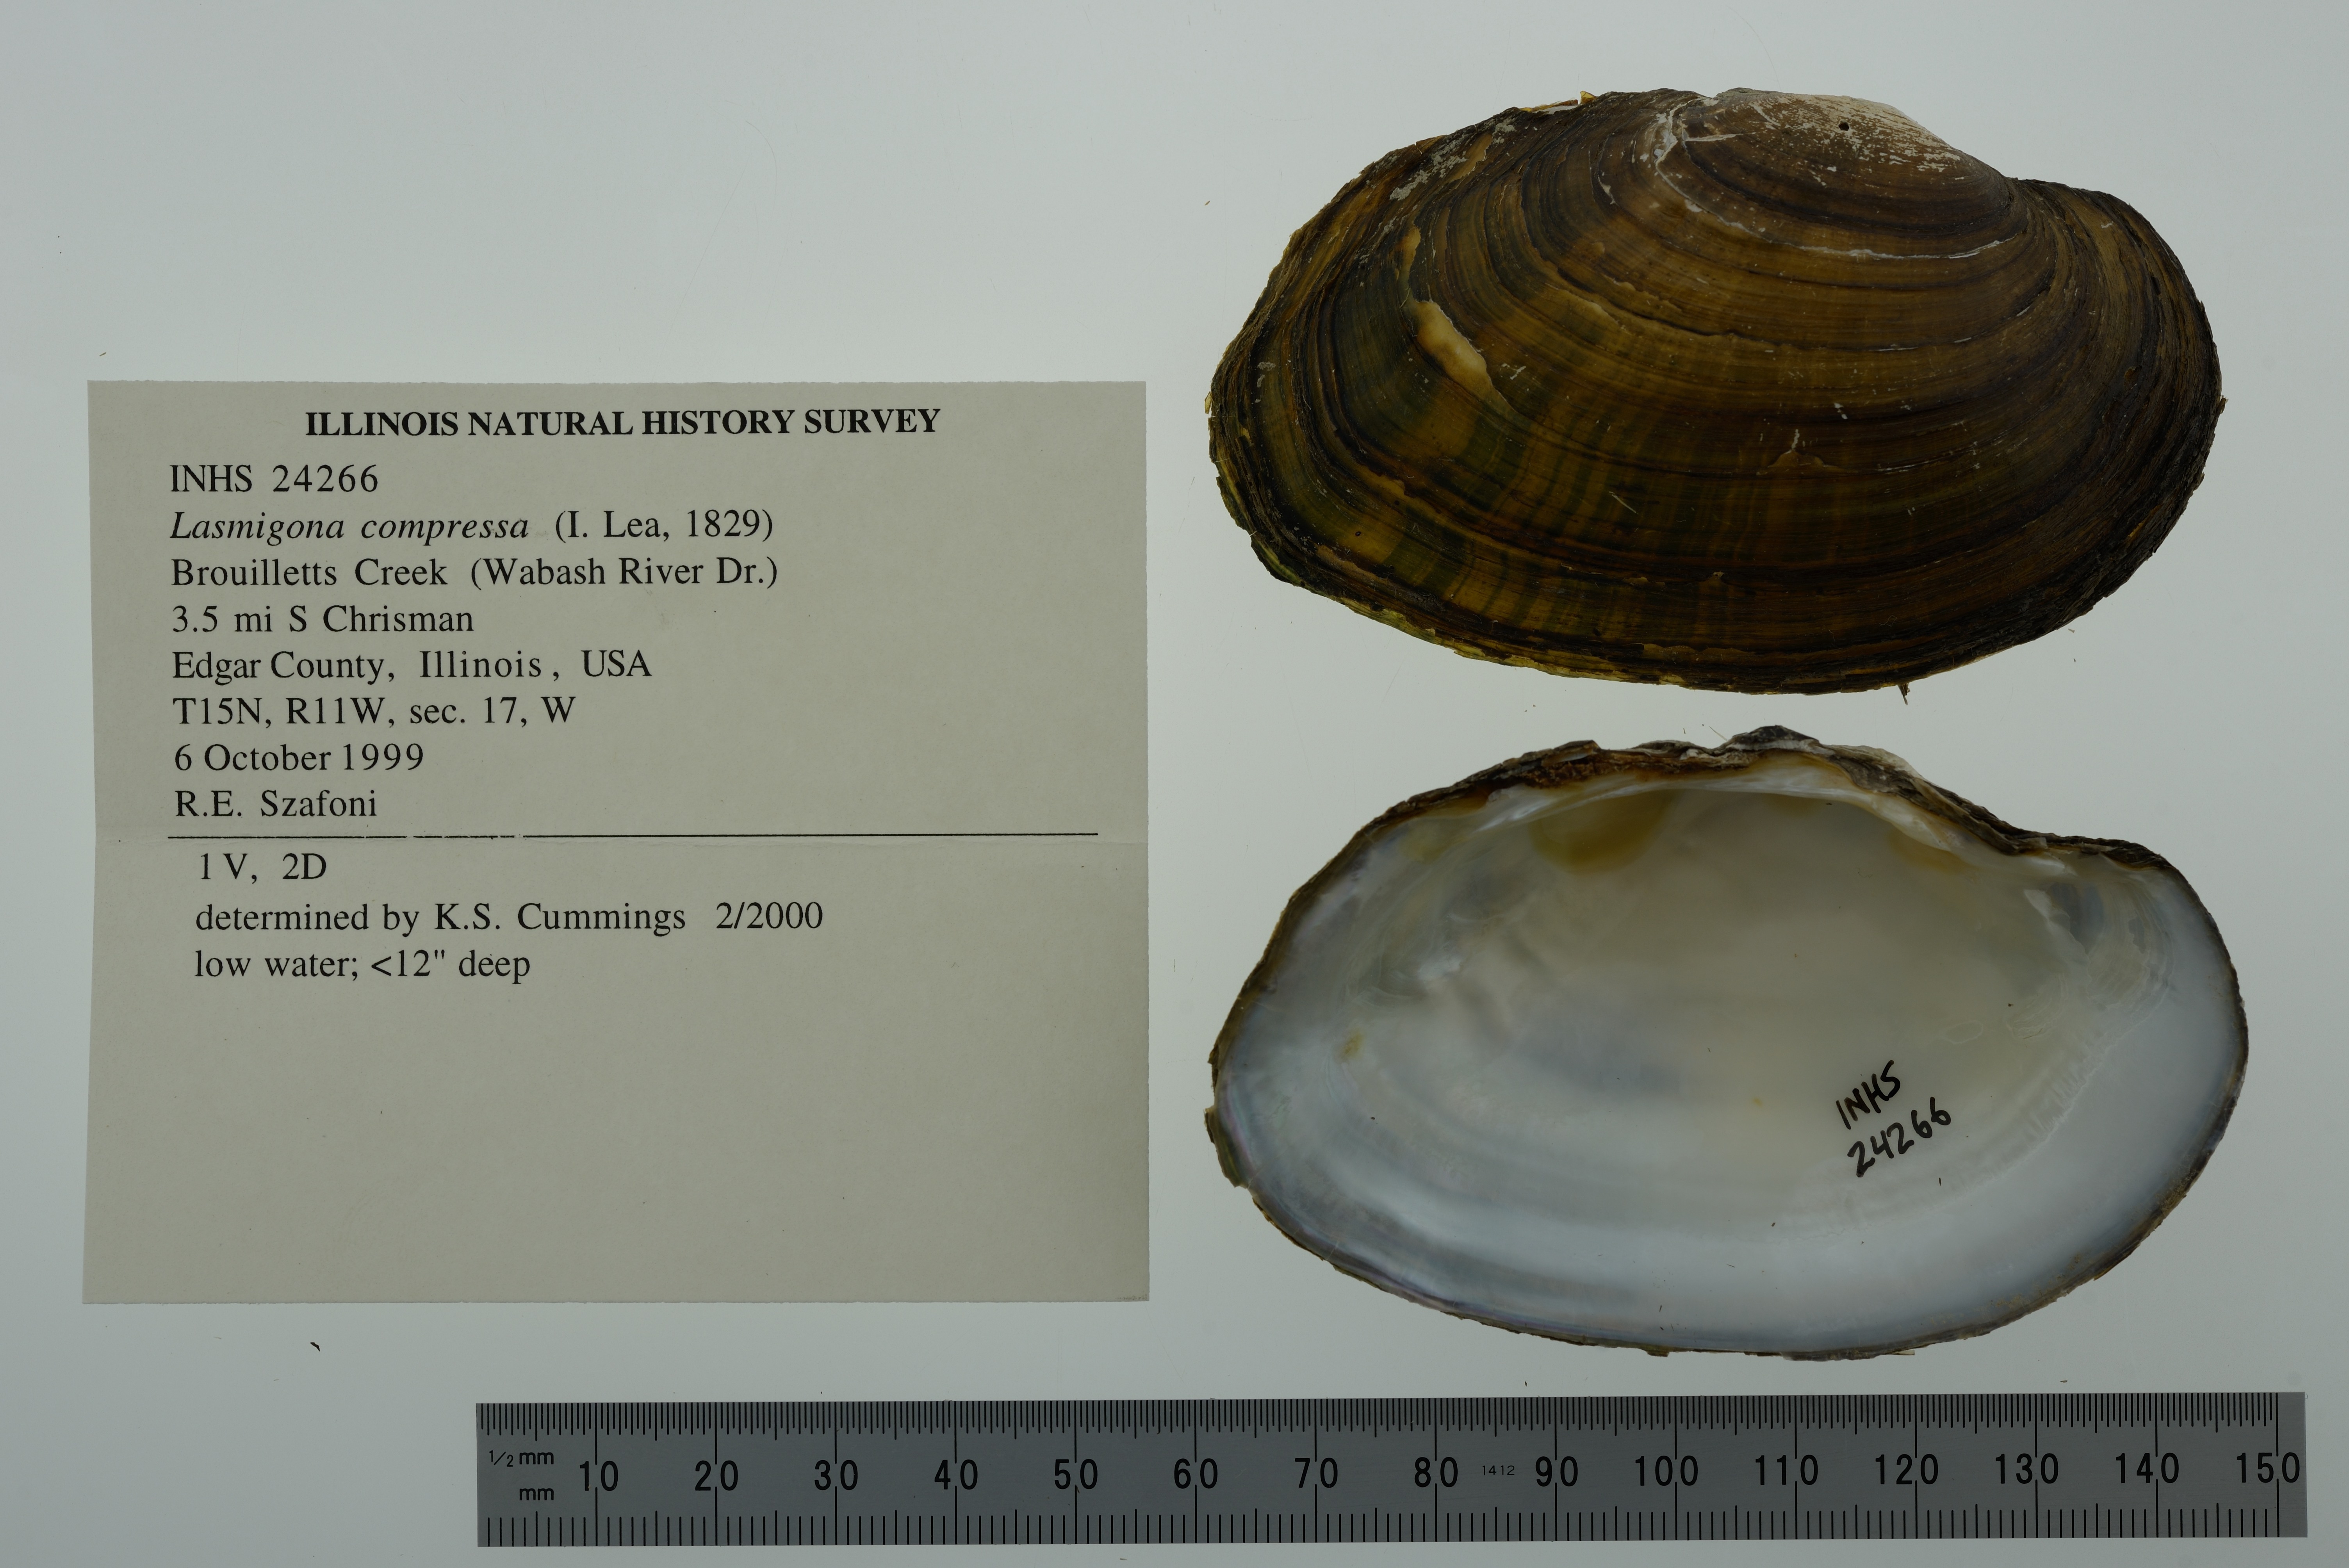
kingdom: Animalia
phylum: Mollusca
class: Bivalvia
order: Unionida
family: Unionidae
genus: Lasmigona
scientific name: Lasmigona compressa
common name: Creek heelsplitter
